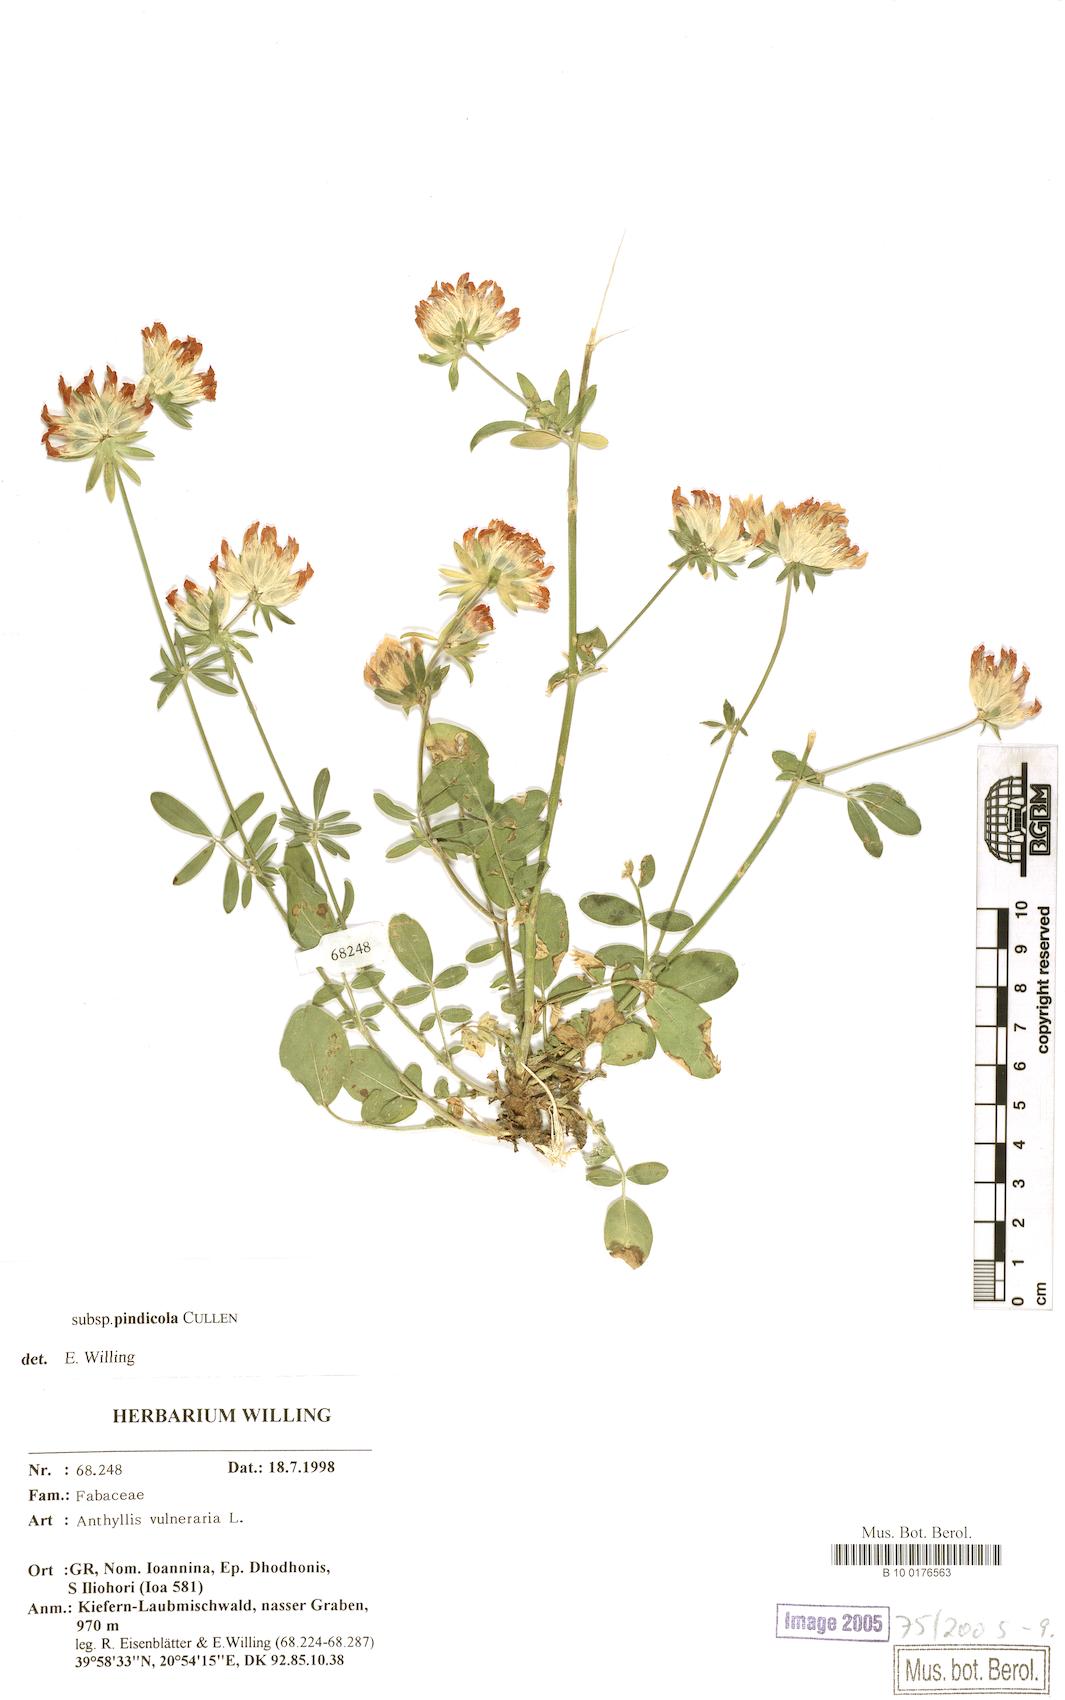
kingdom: Plantae
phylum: Tracheophyta
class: Magnoliopsida
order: Fabales
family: Fabaceae
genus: Anthyllis
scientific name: Anthyllis vulneraria
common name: Kidney vetch
